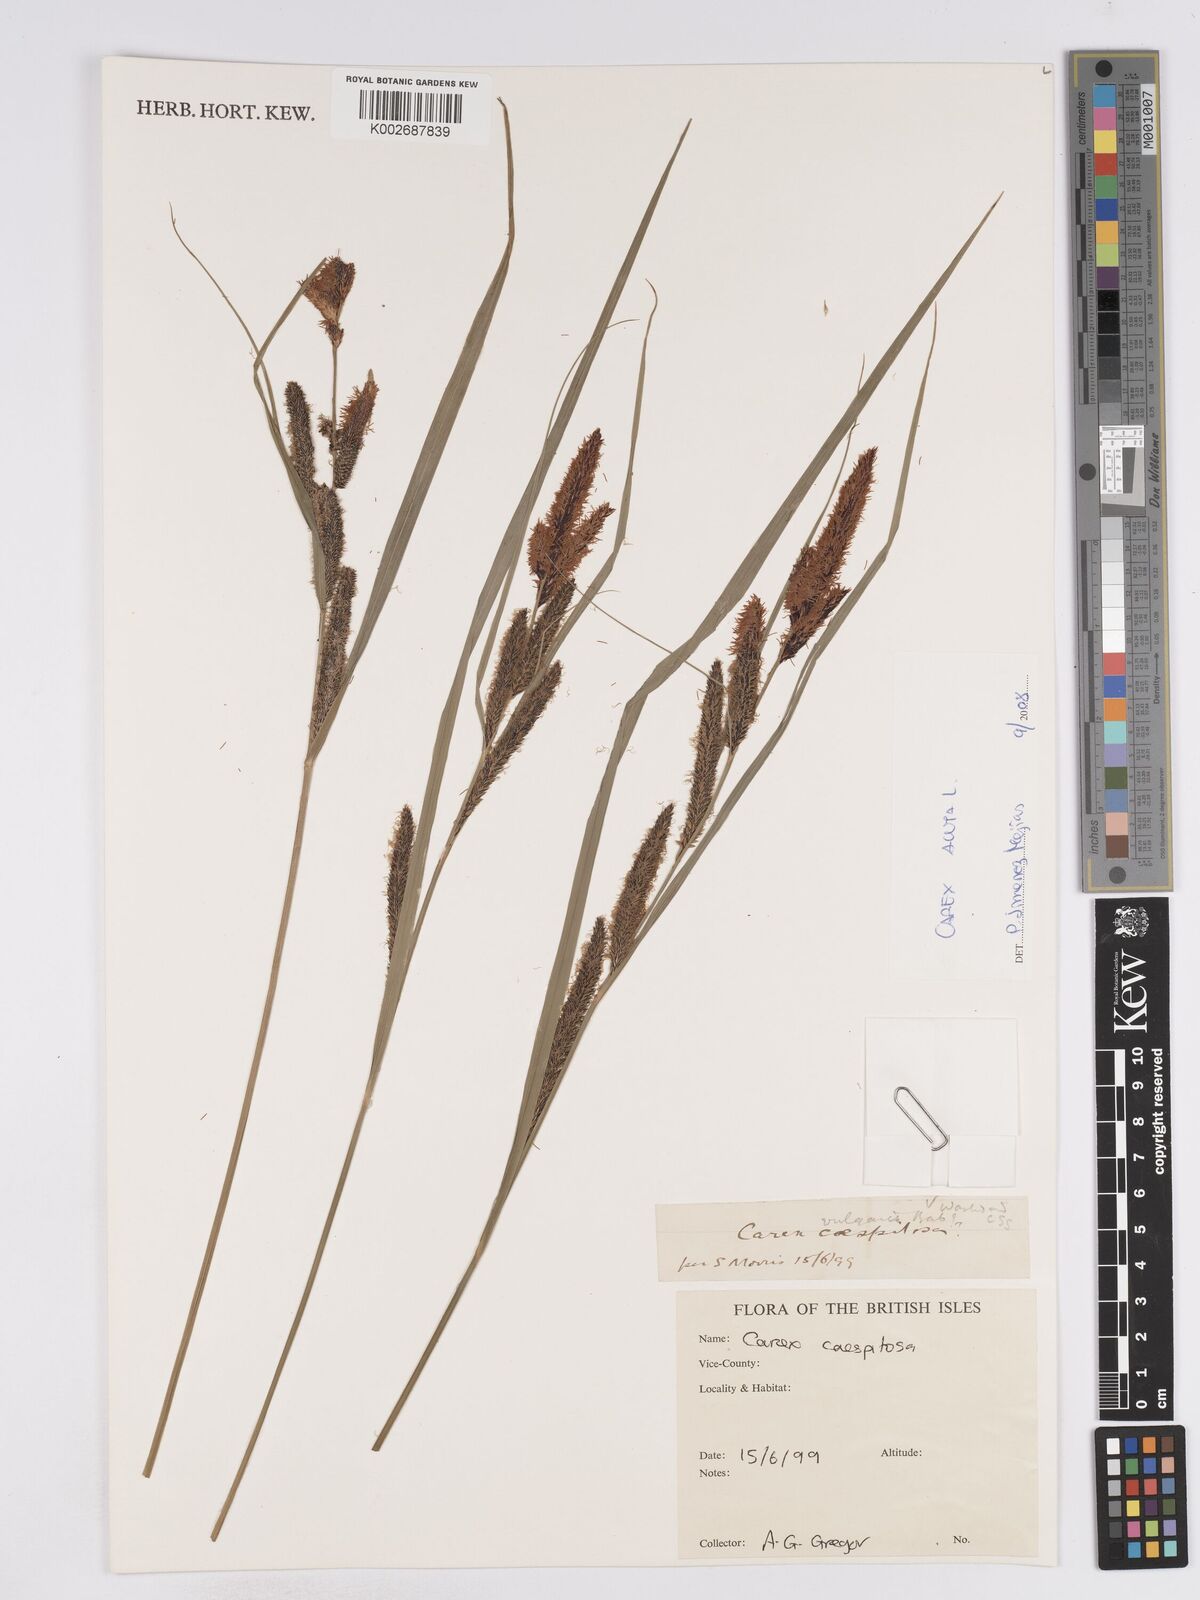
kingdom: Plantae
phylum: Tracheophyta
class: Liliopsida
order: Poales
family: Cyperaceae
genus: Carex
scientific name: Carex acuta
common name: Slender tufted-sedge
